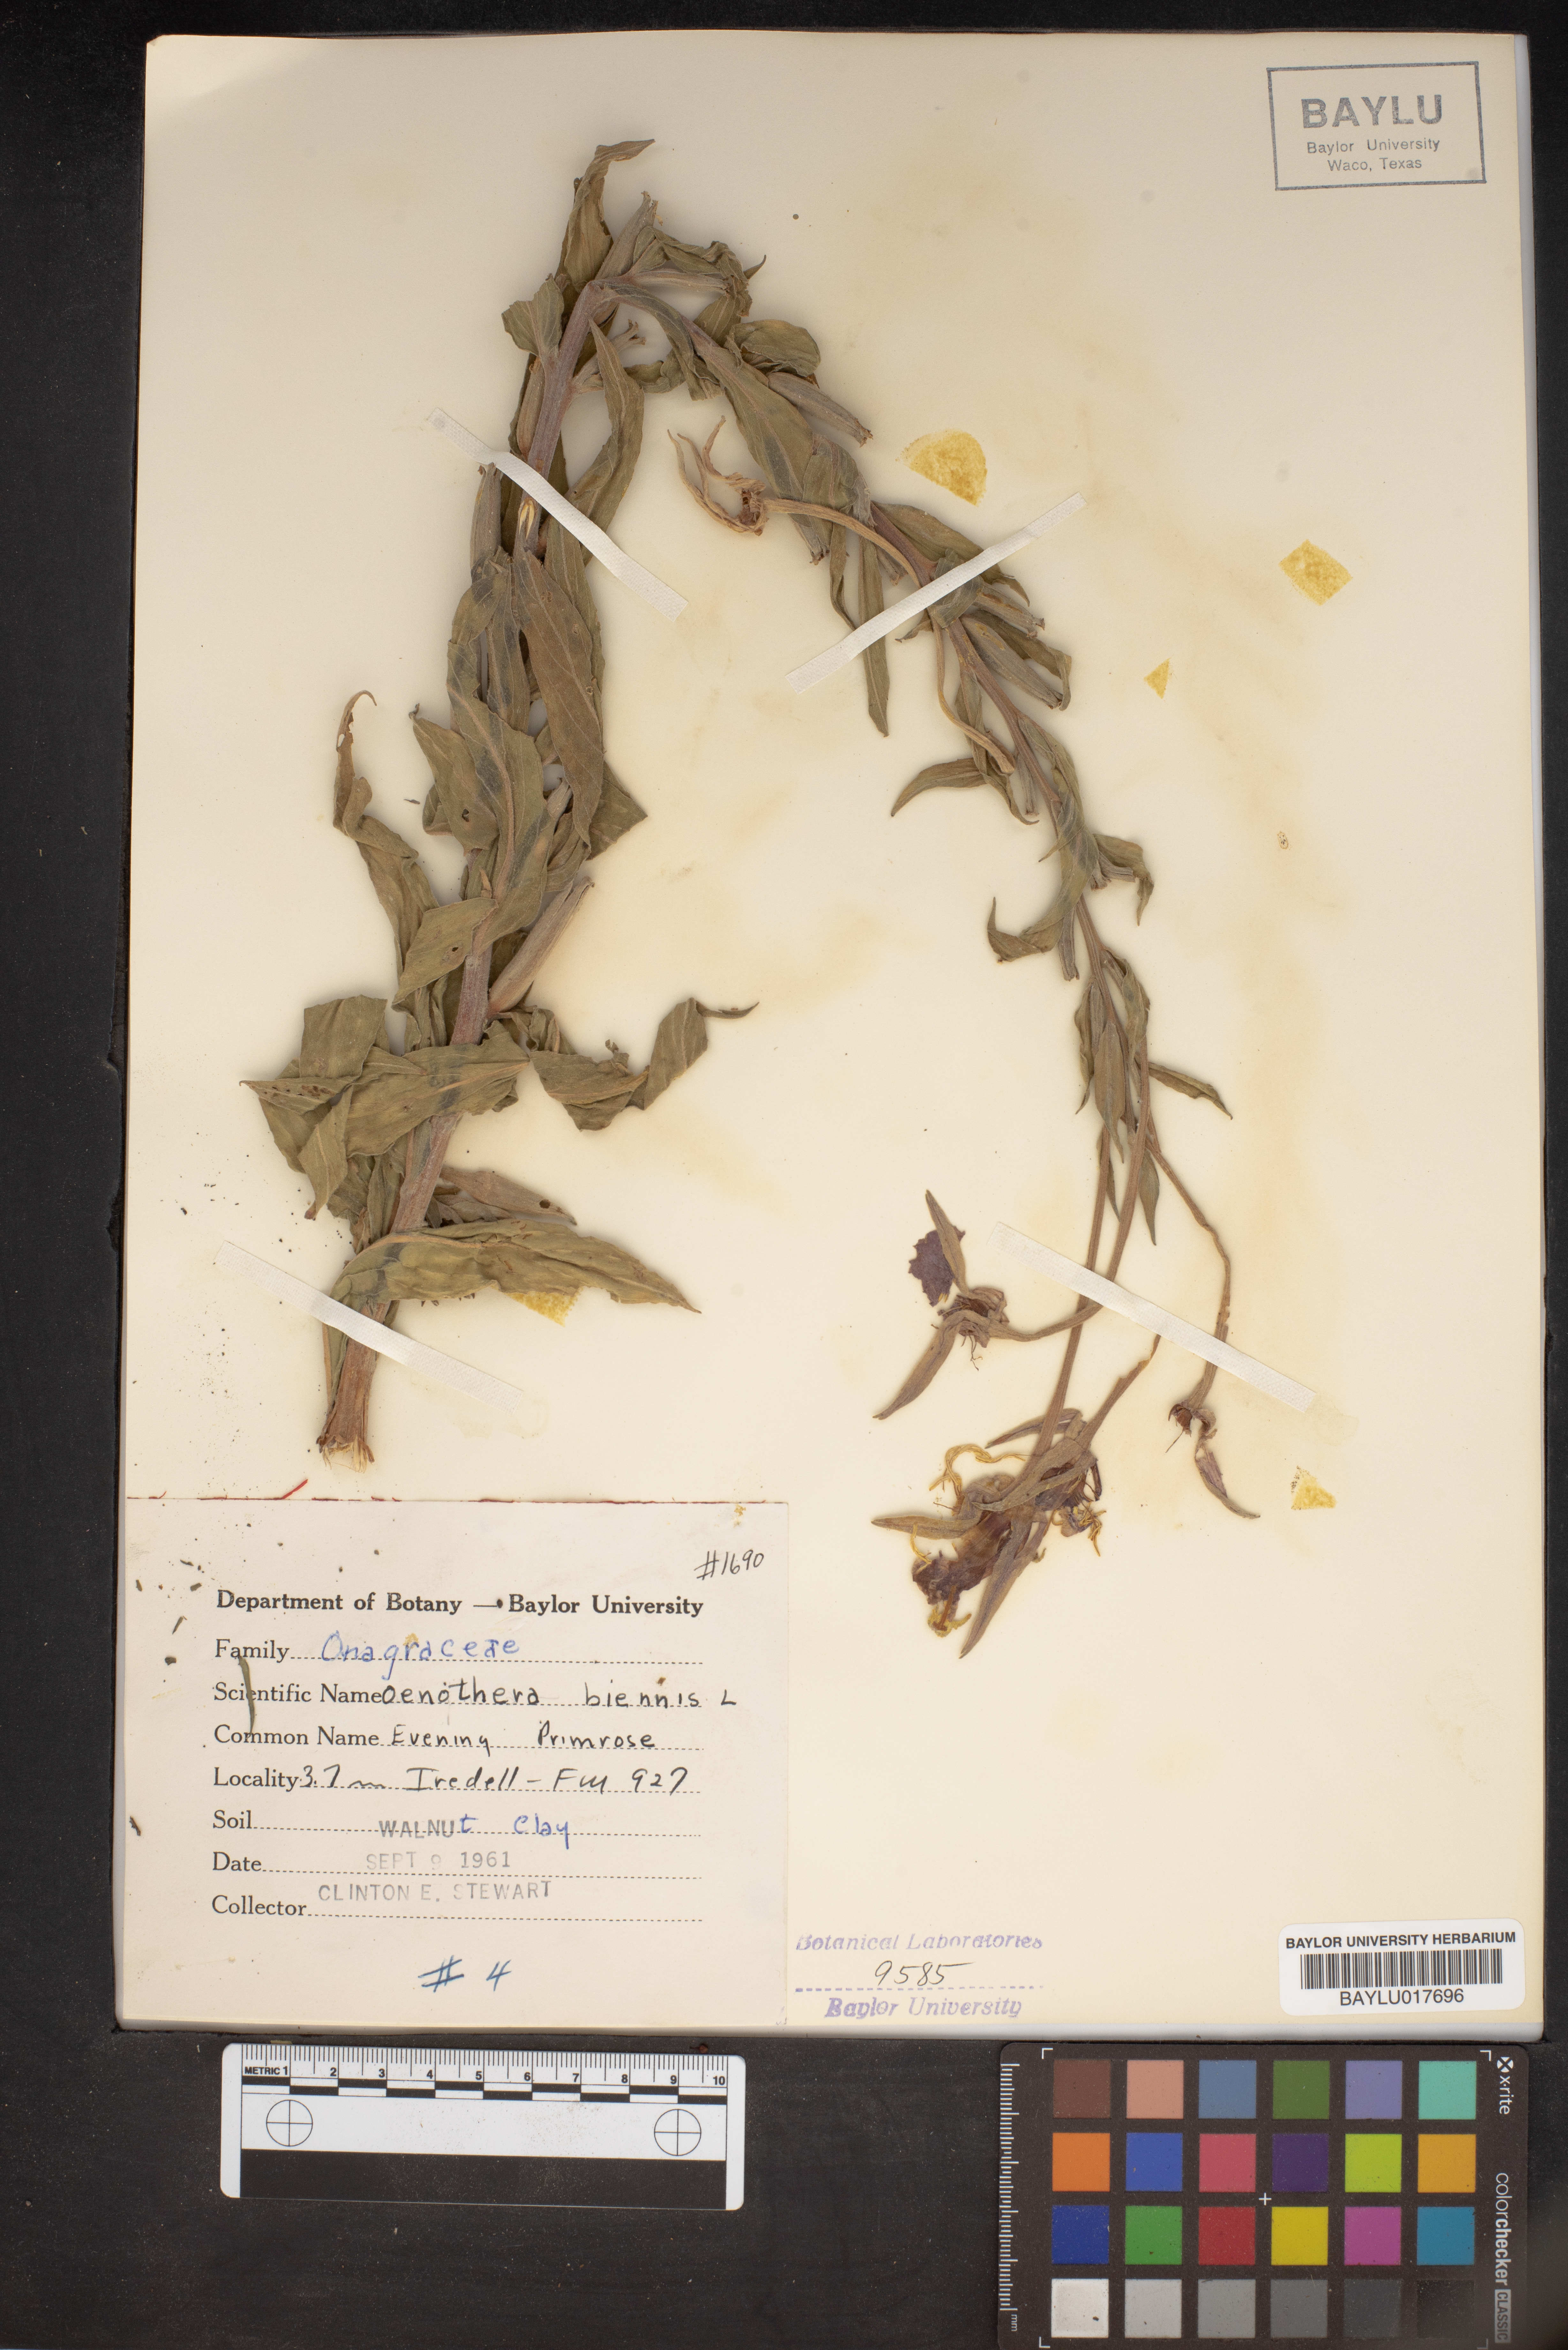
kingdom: Plantae
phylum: Tracheophyta
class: Magnoliopsida
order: Myrtales
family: Onagraceae
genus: Oenothera
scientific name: Oenothera biennis
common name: Common evening-primrose
